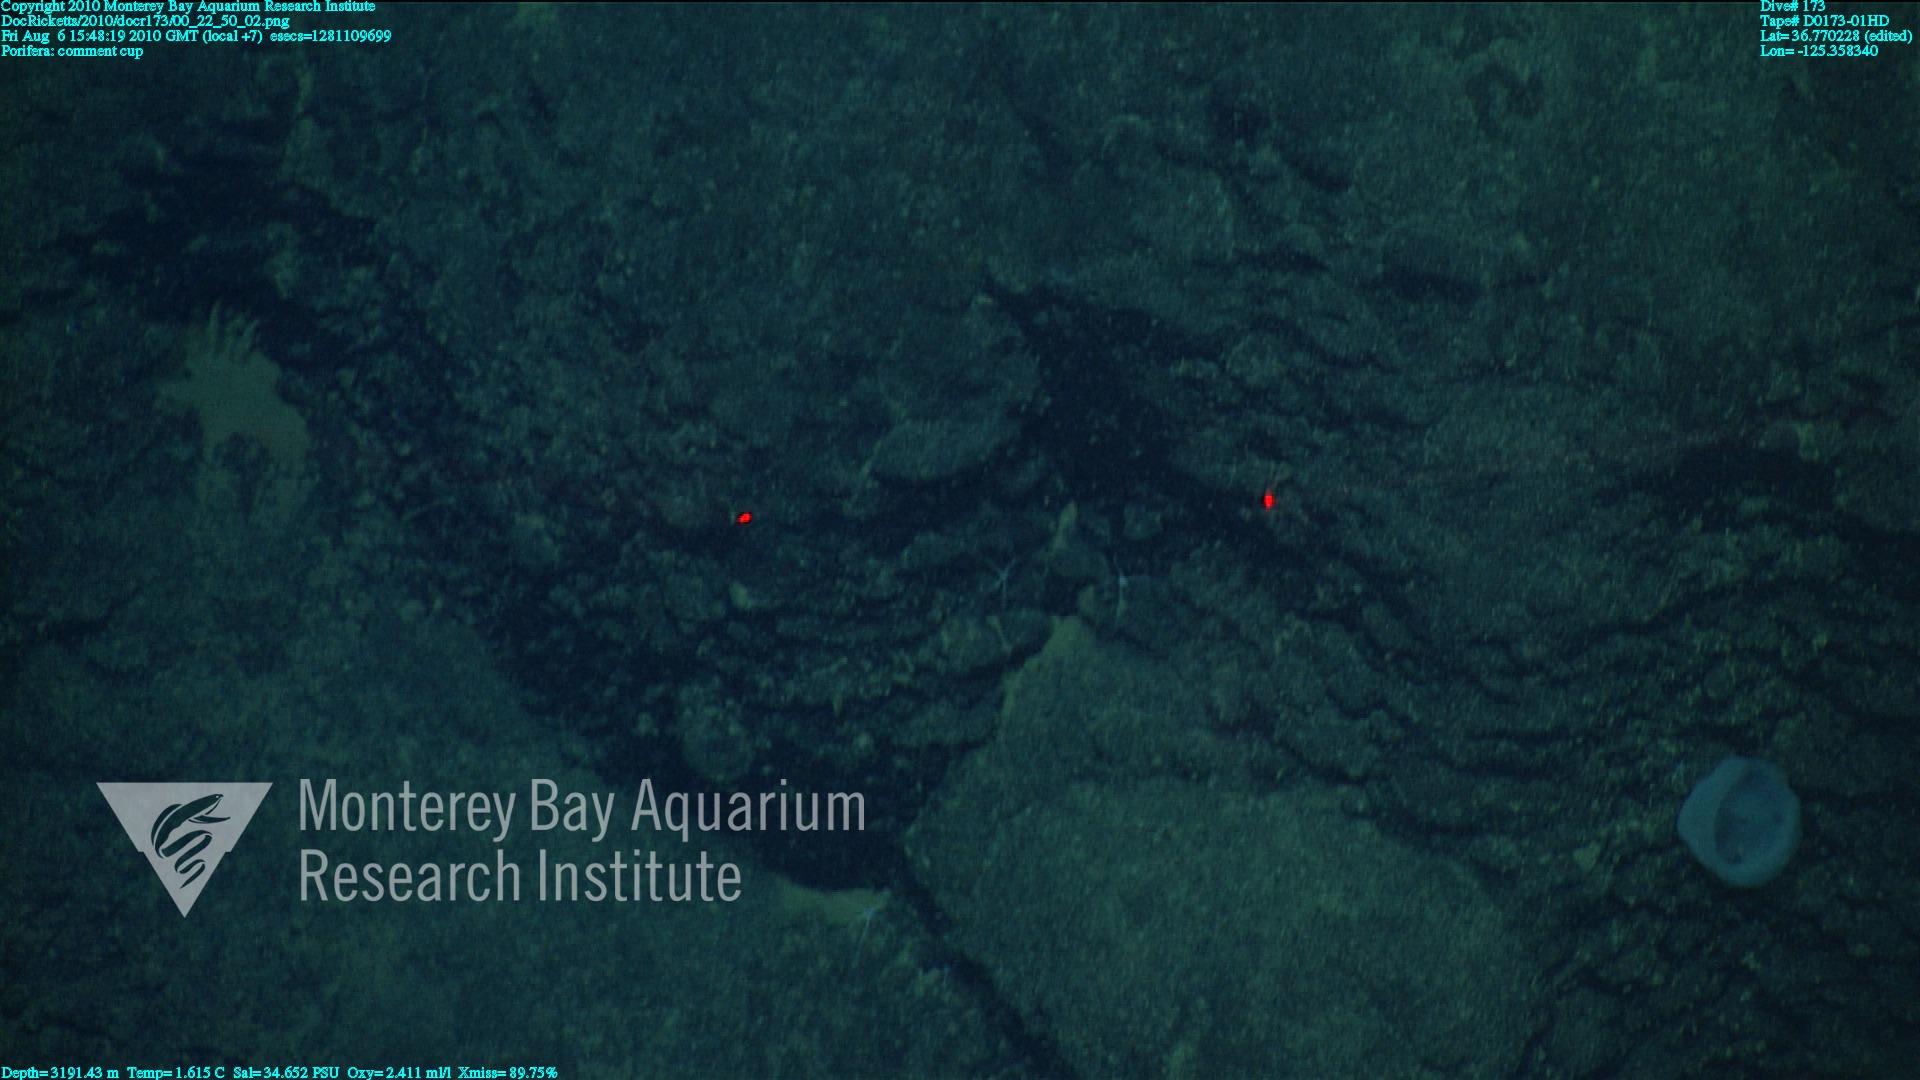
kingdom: Animalia
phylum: Porifera
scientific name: Porifera
